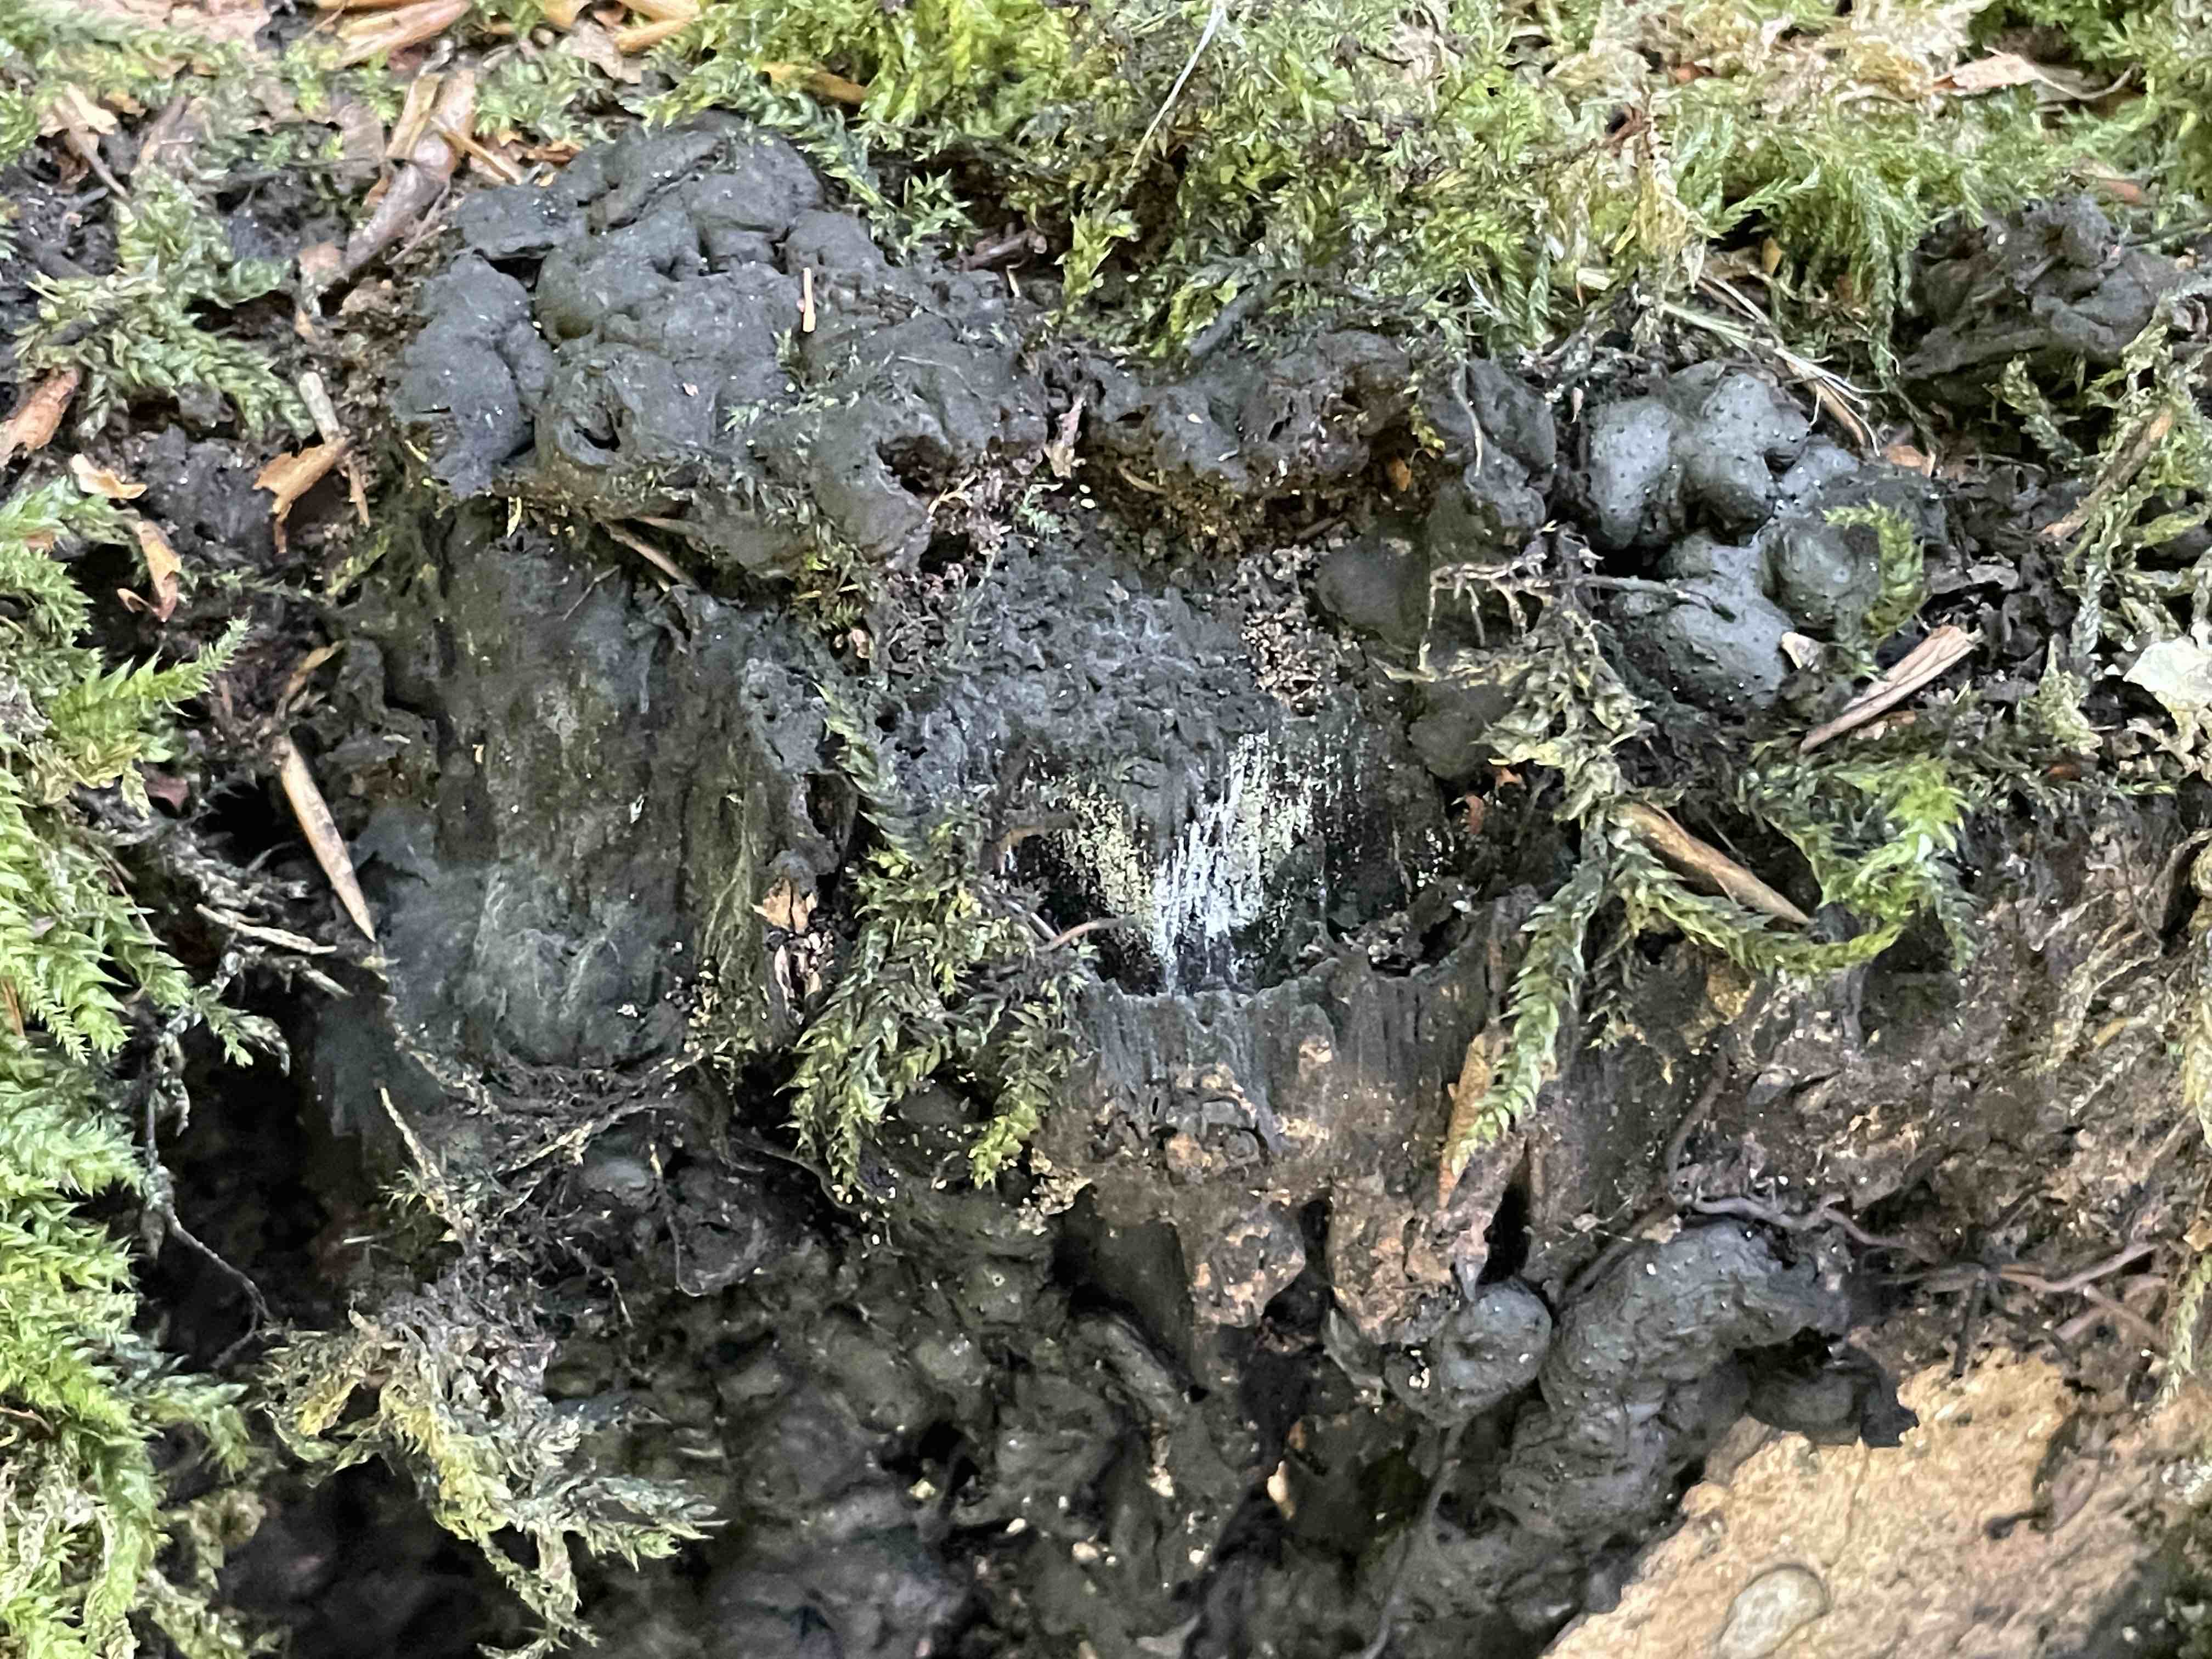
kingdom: Fungi
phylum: Ascomycota
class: Sordariomycetes
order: Xylariales
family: Xylariaceae
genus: Kretzschmaria
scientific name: Kretzschmaria deusta
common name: stor kulsvamp
